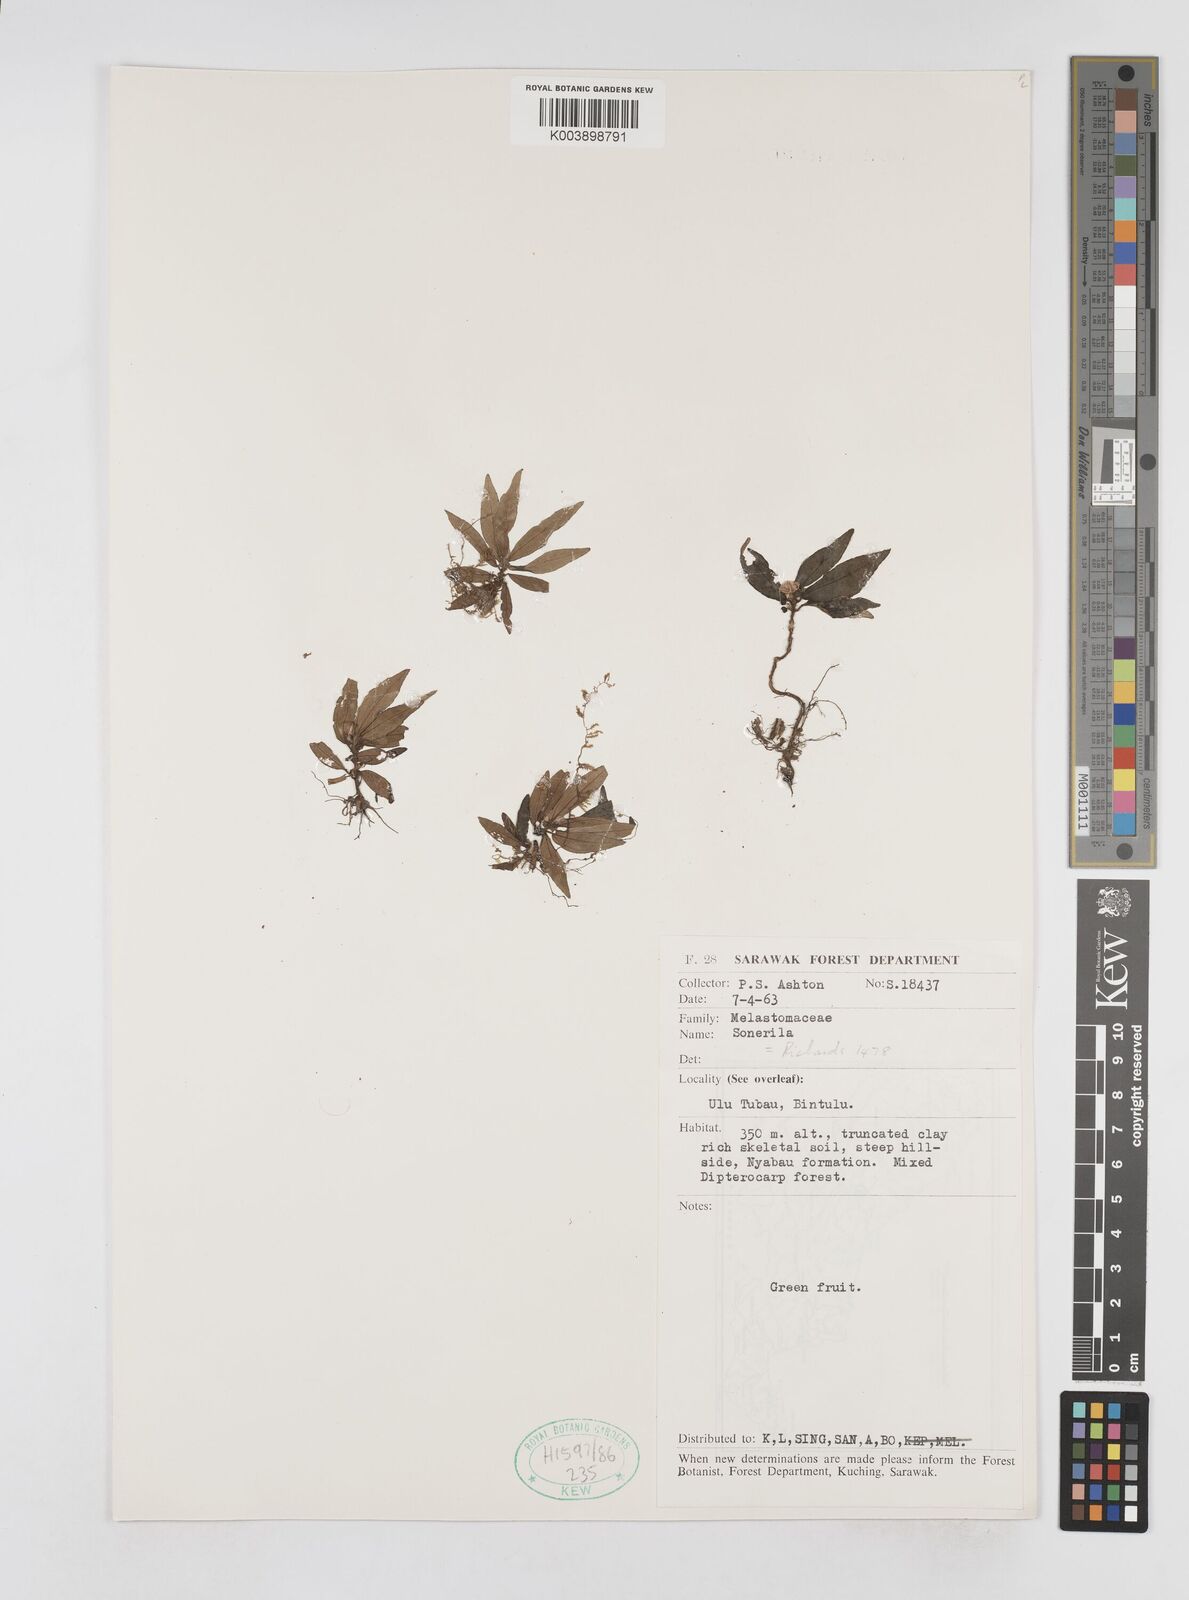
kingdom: Plantae
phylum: Tracheophyta
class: Magnoliopsida
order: Myrtales
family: Melastomataceae
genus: Sonerila
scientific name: Sonerila
